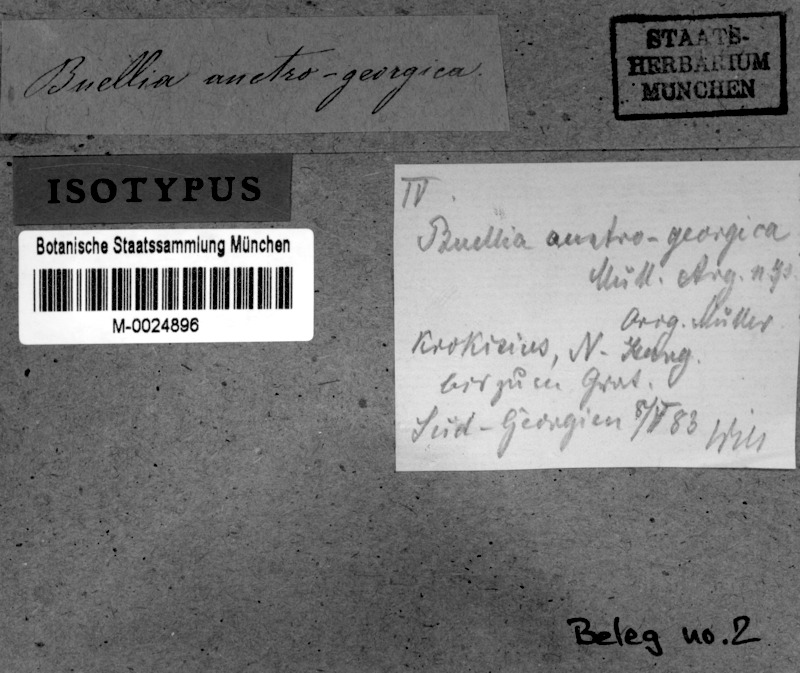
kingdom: Fungi
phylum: Ascomycota
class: Lecanoromycetes
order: Rhizocarpales
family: Rhizocarpaceae
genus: Rhizocarpon
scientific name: Rhizocarpon superficiale
